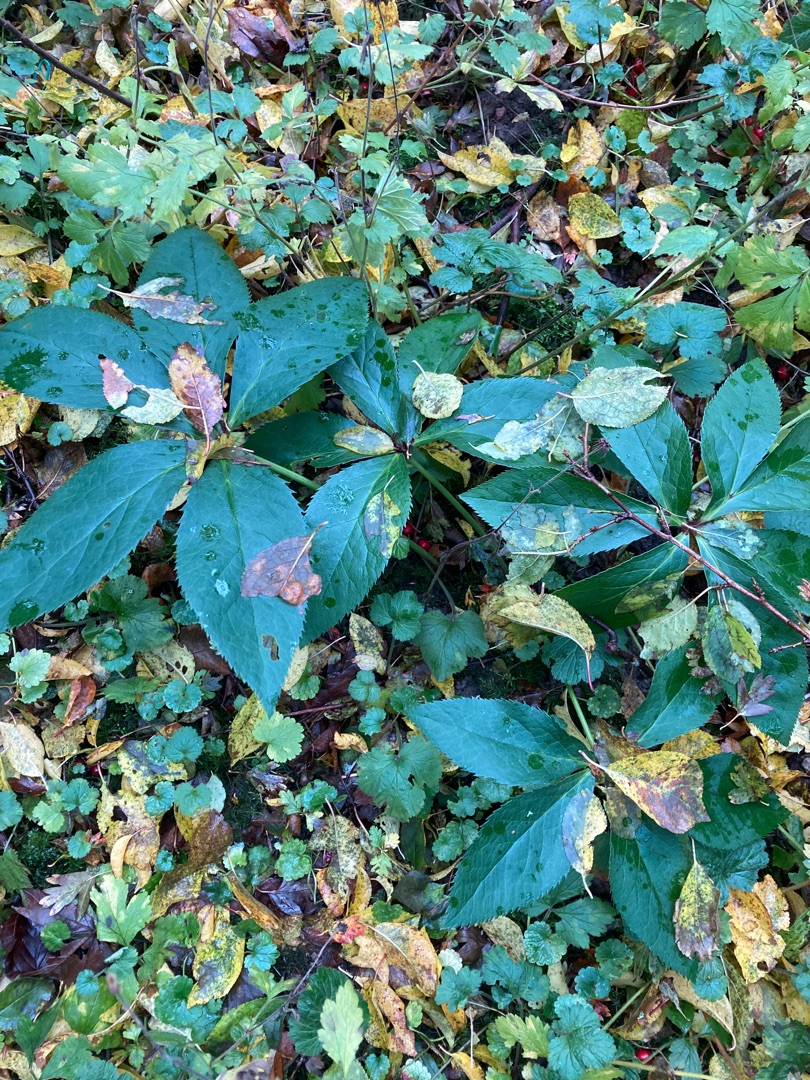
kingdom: Plantae
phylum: Tracheophyta
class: Magnoliopsida
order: Ranunculales
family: Ranunculaceae
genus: Helleborus
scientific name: Helleborus orientalis
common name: Storblomstret julerose
